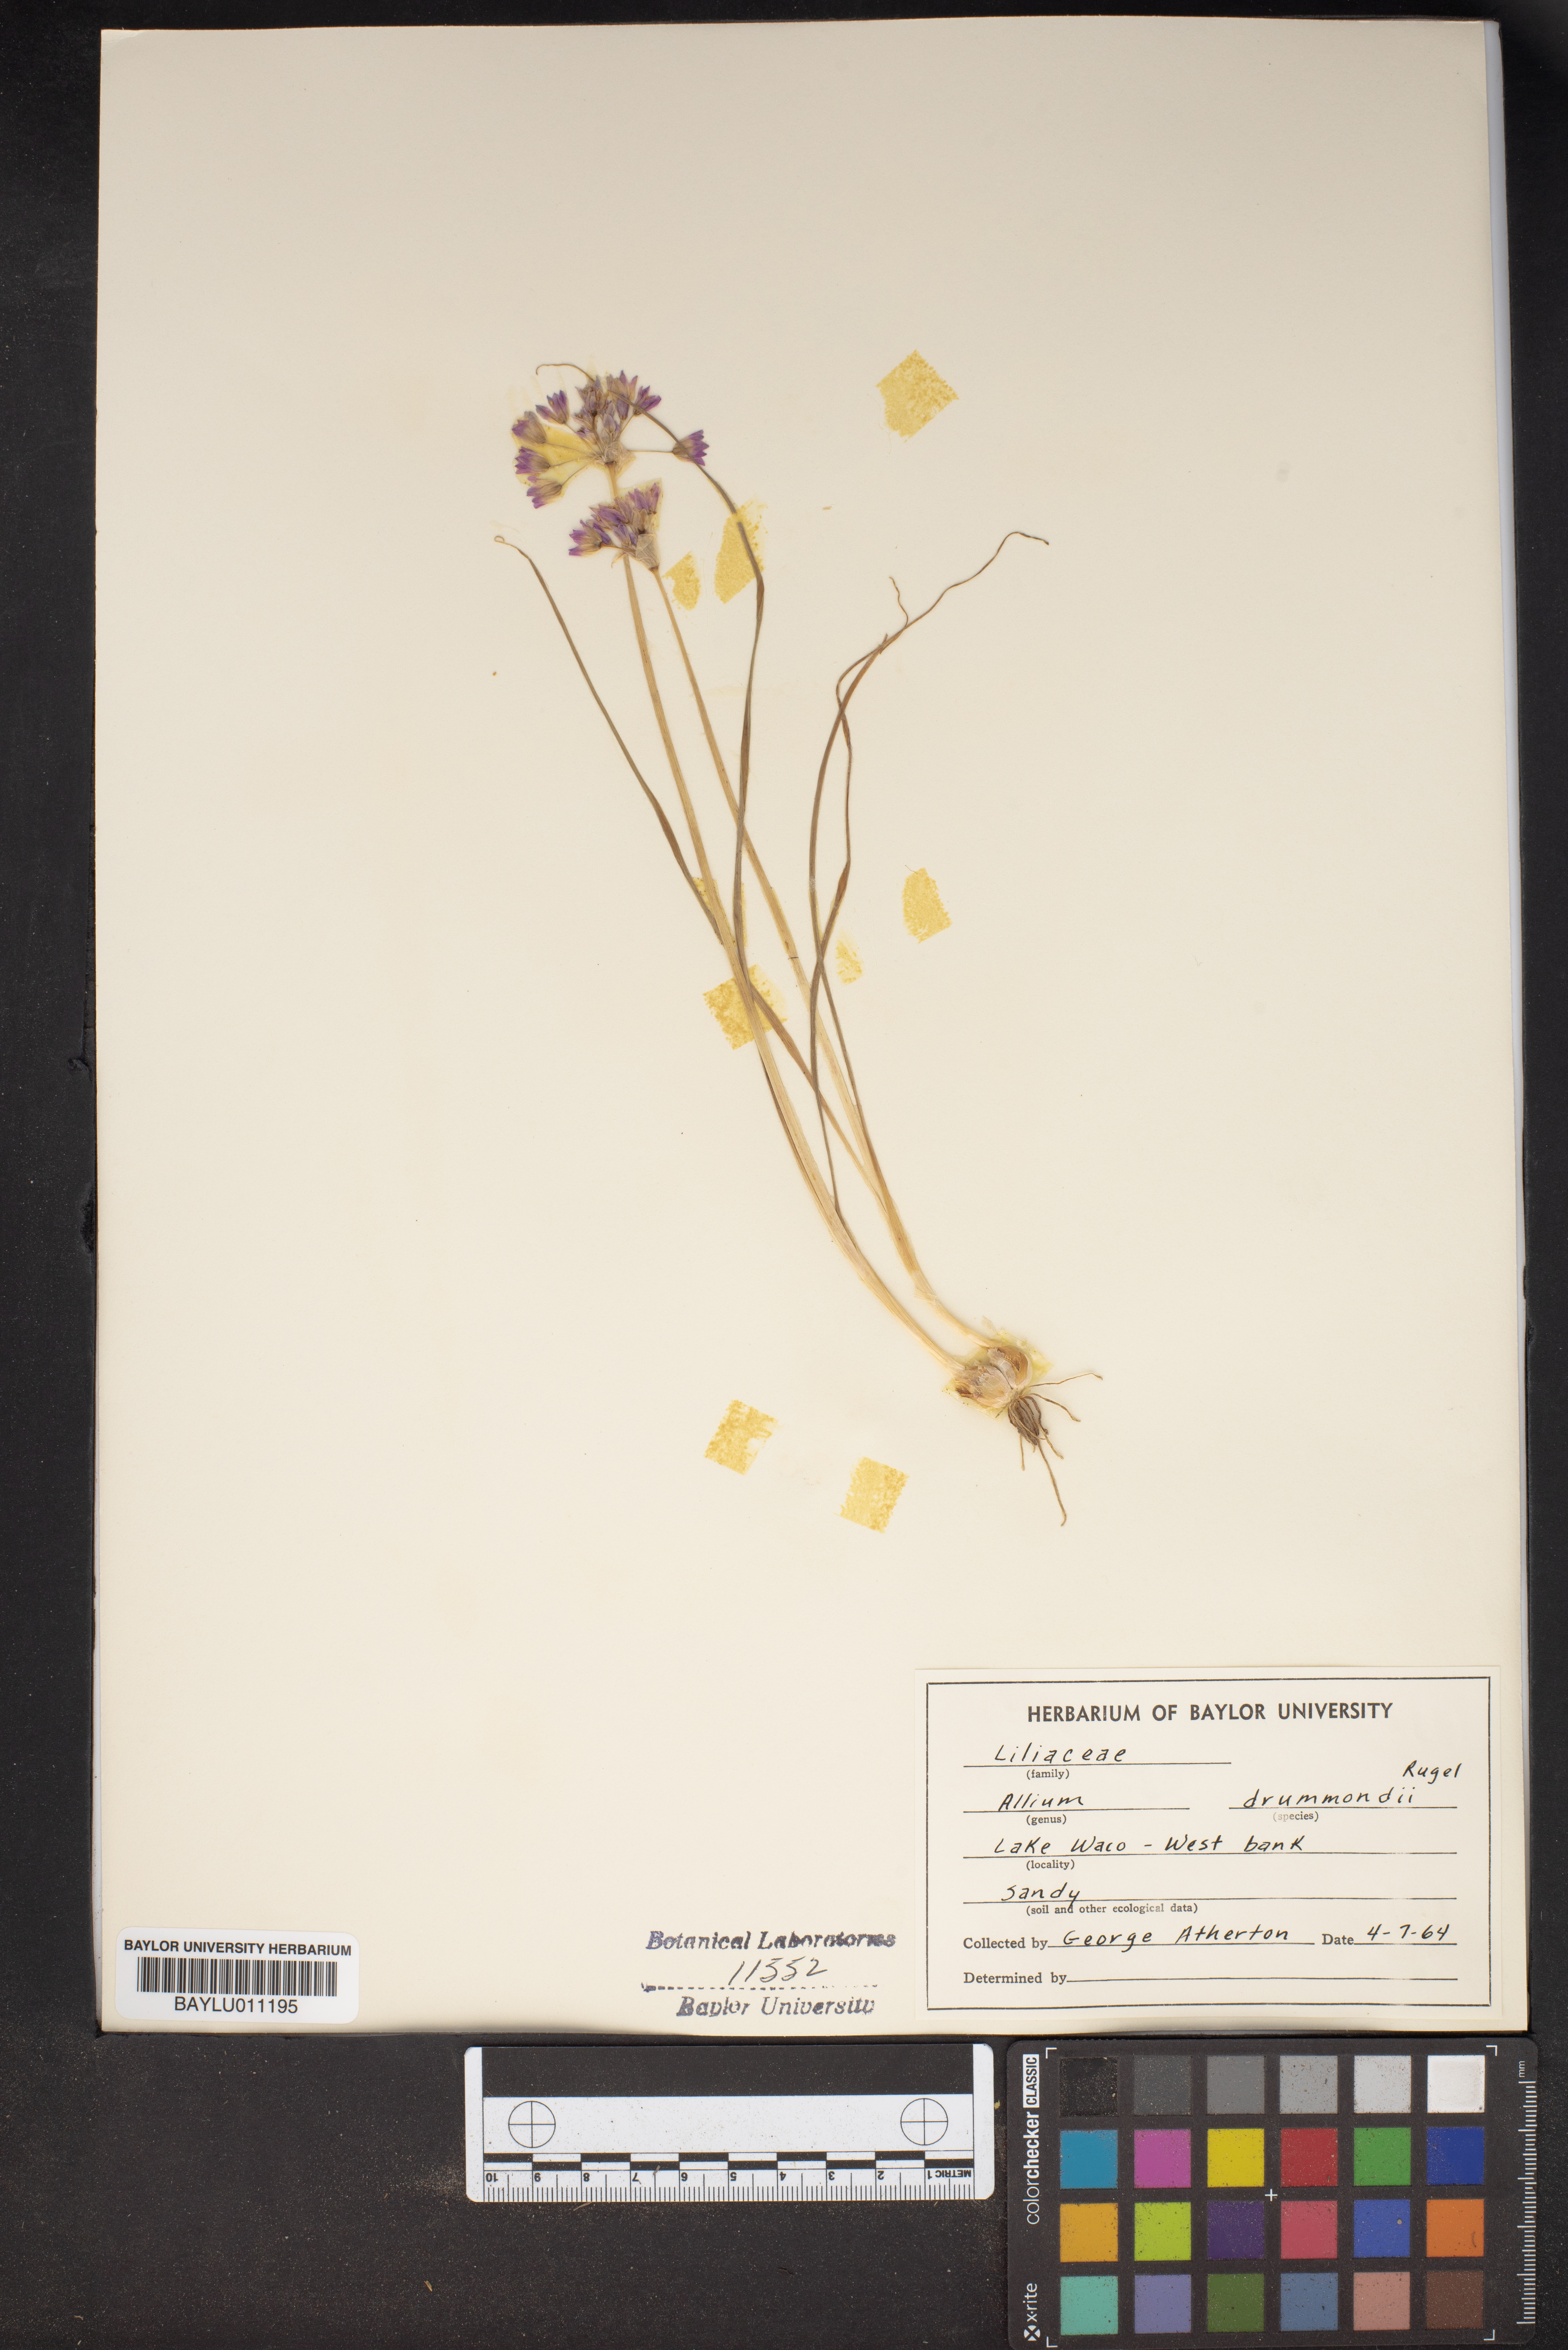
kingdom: Plantae
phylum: Tracheophyta
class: Liliopsida
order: Asparagales
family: Amaryllidaceae
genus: Allium
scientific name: Allium drummondii
